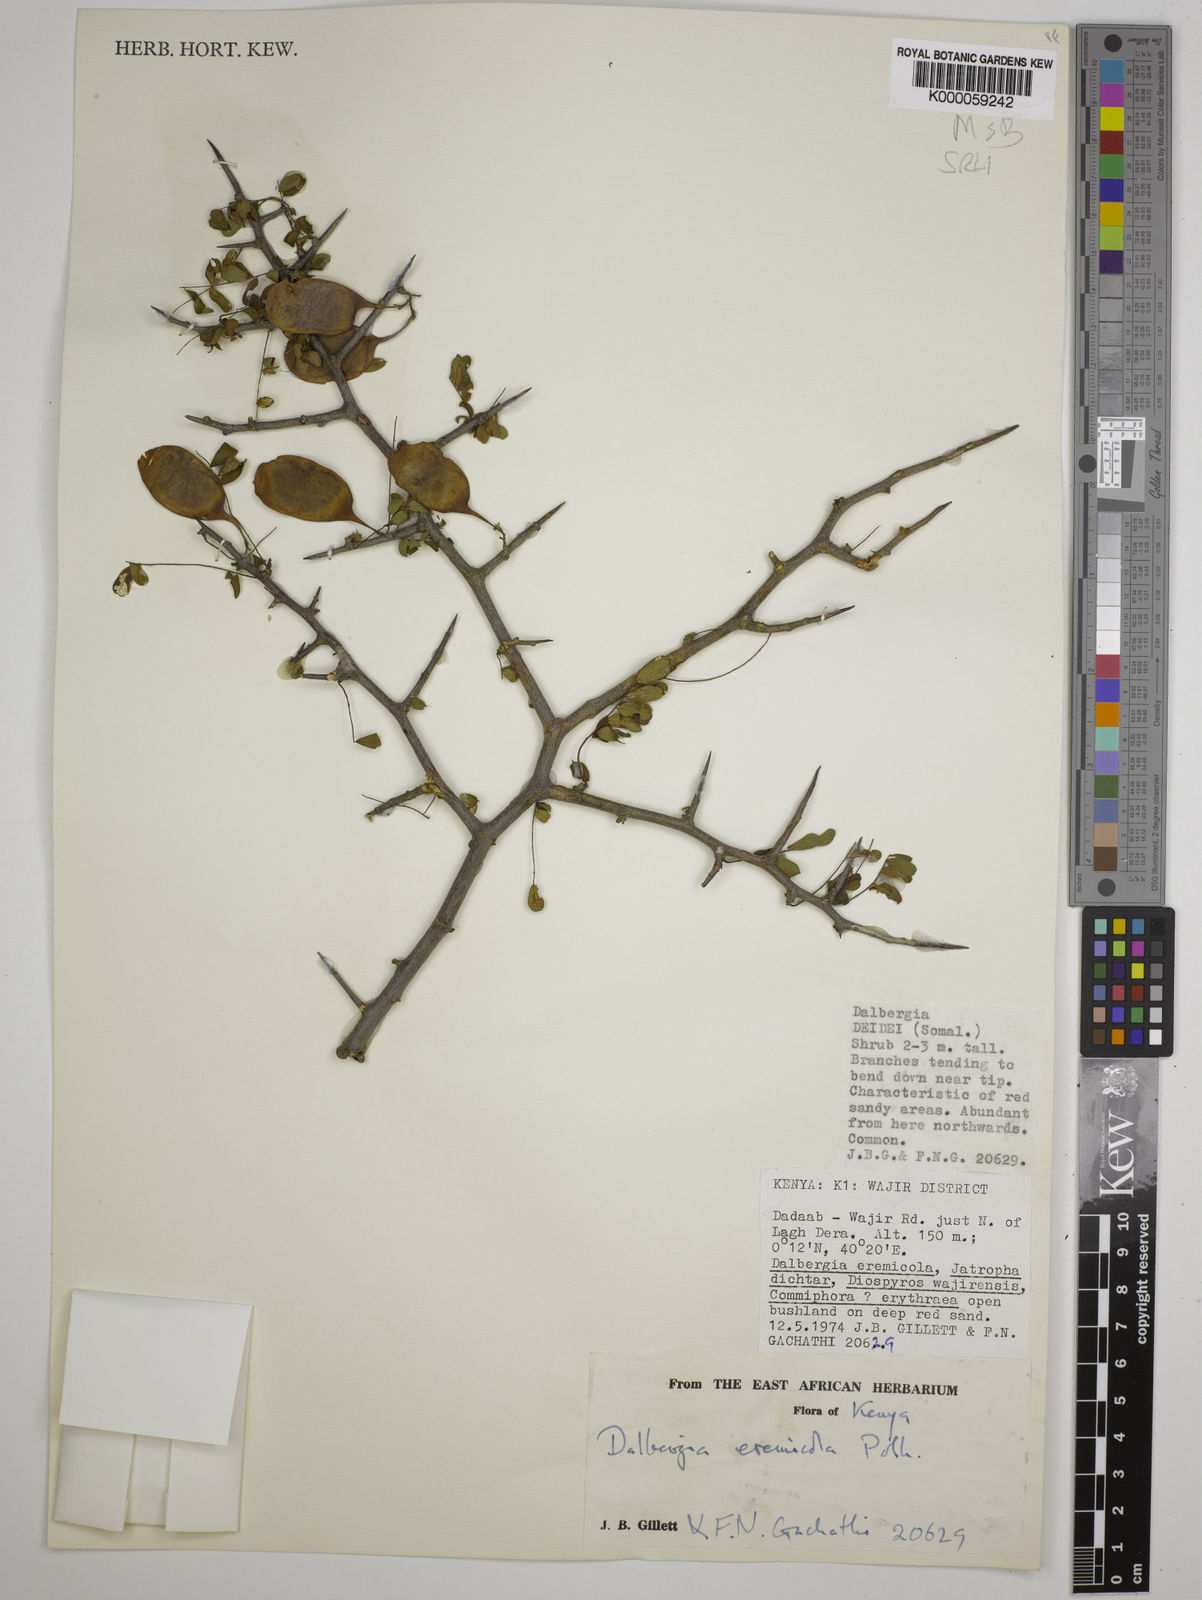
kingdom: Plantae
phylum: Tracheophyta
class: Magnoliopsida
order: Fabales
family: Fabaceae
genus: Dalbergia
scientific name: Dalbergia eremicola
